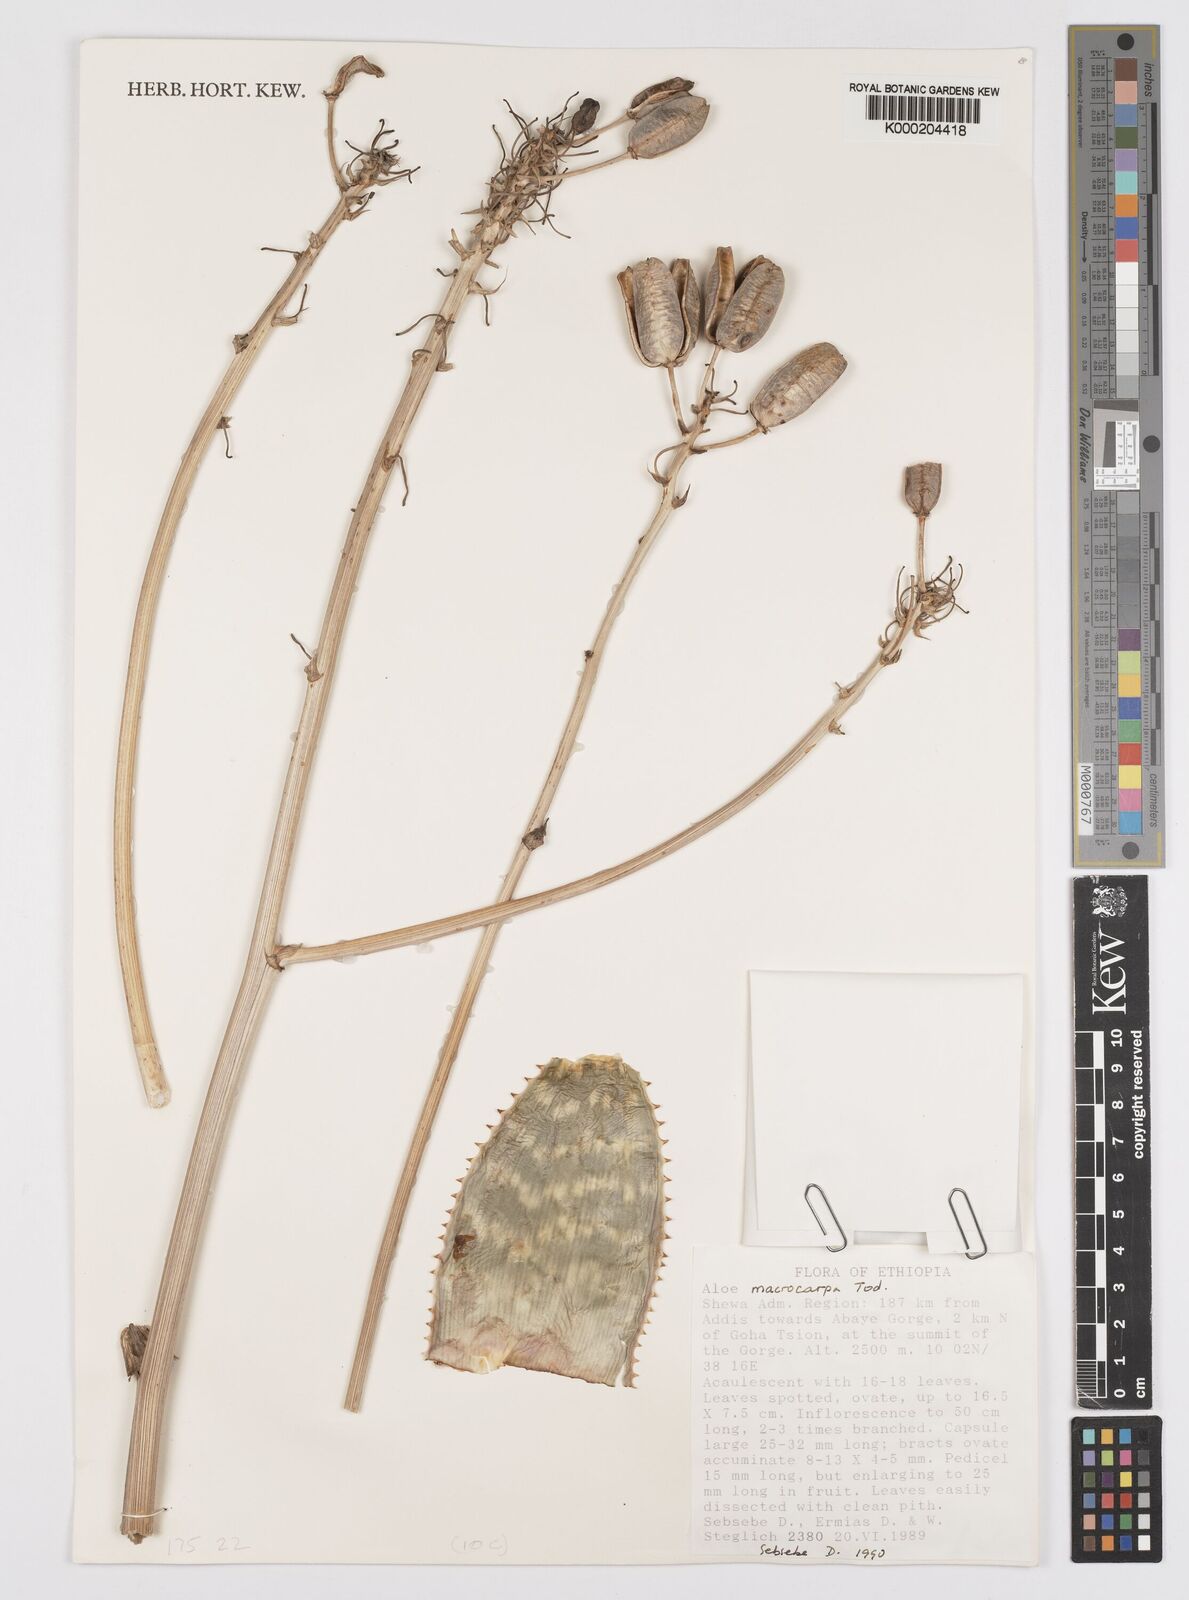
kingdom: Plantae
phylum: Tracheophyta
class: Liliopsida
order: Asparagales
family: Asphodelaceae
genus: Aloe
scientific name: Aloe macrocarpa
